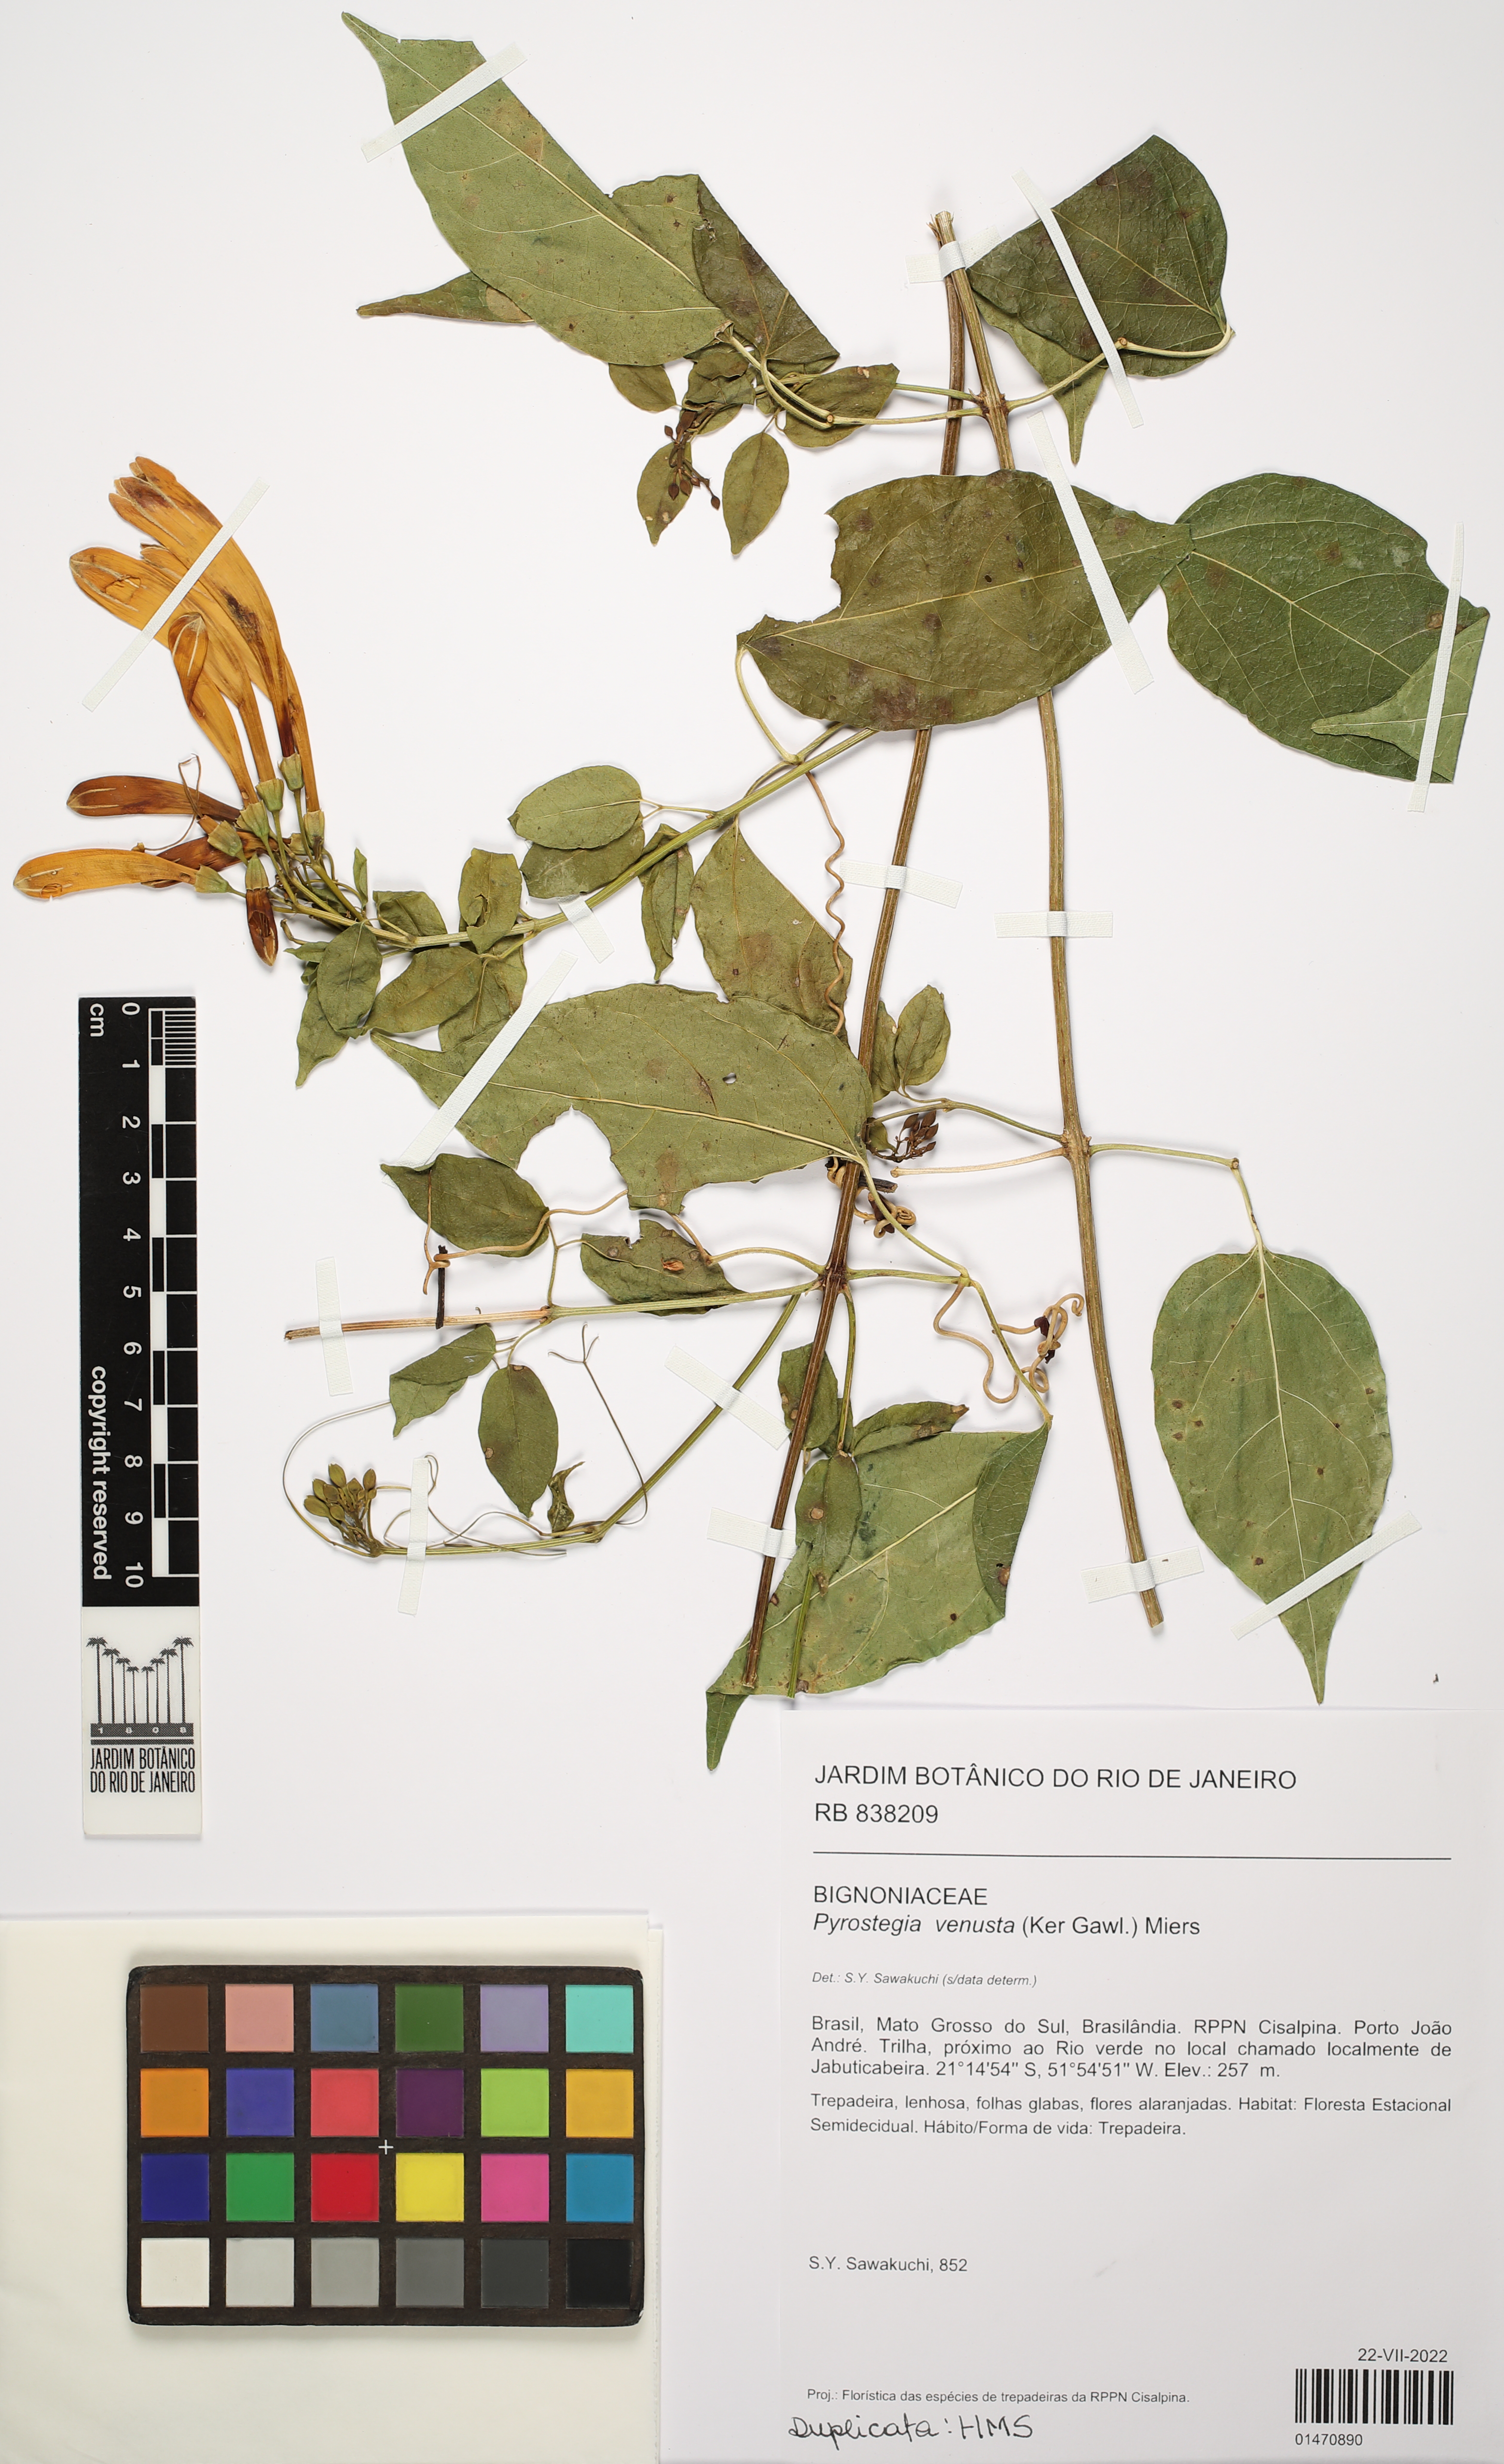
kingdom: Plantae
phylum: Tracheophyta
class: Magnoliopsida
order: Lamiales
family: Bignoniaceae
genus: Pyrostegia
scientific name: Pyrostegia venusta
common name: Flamevine
